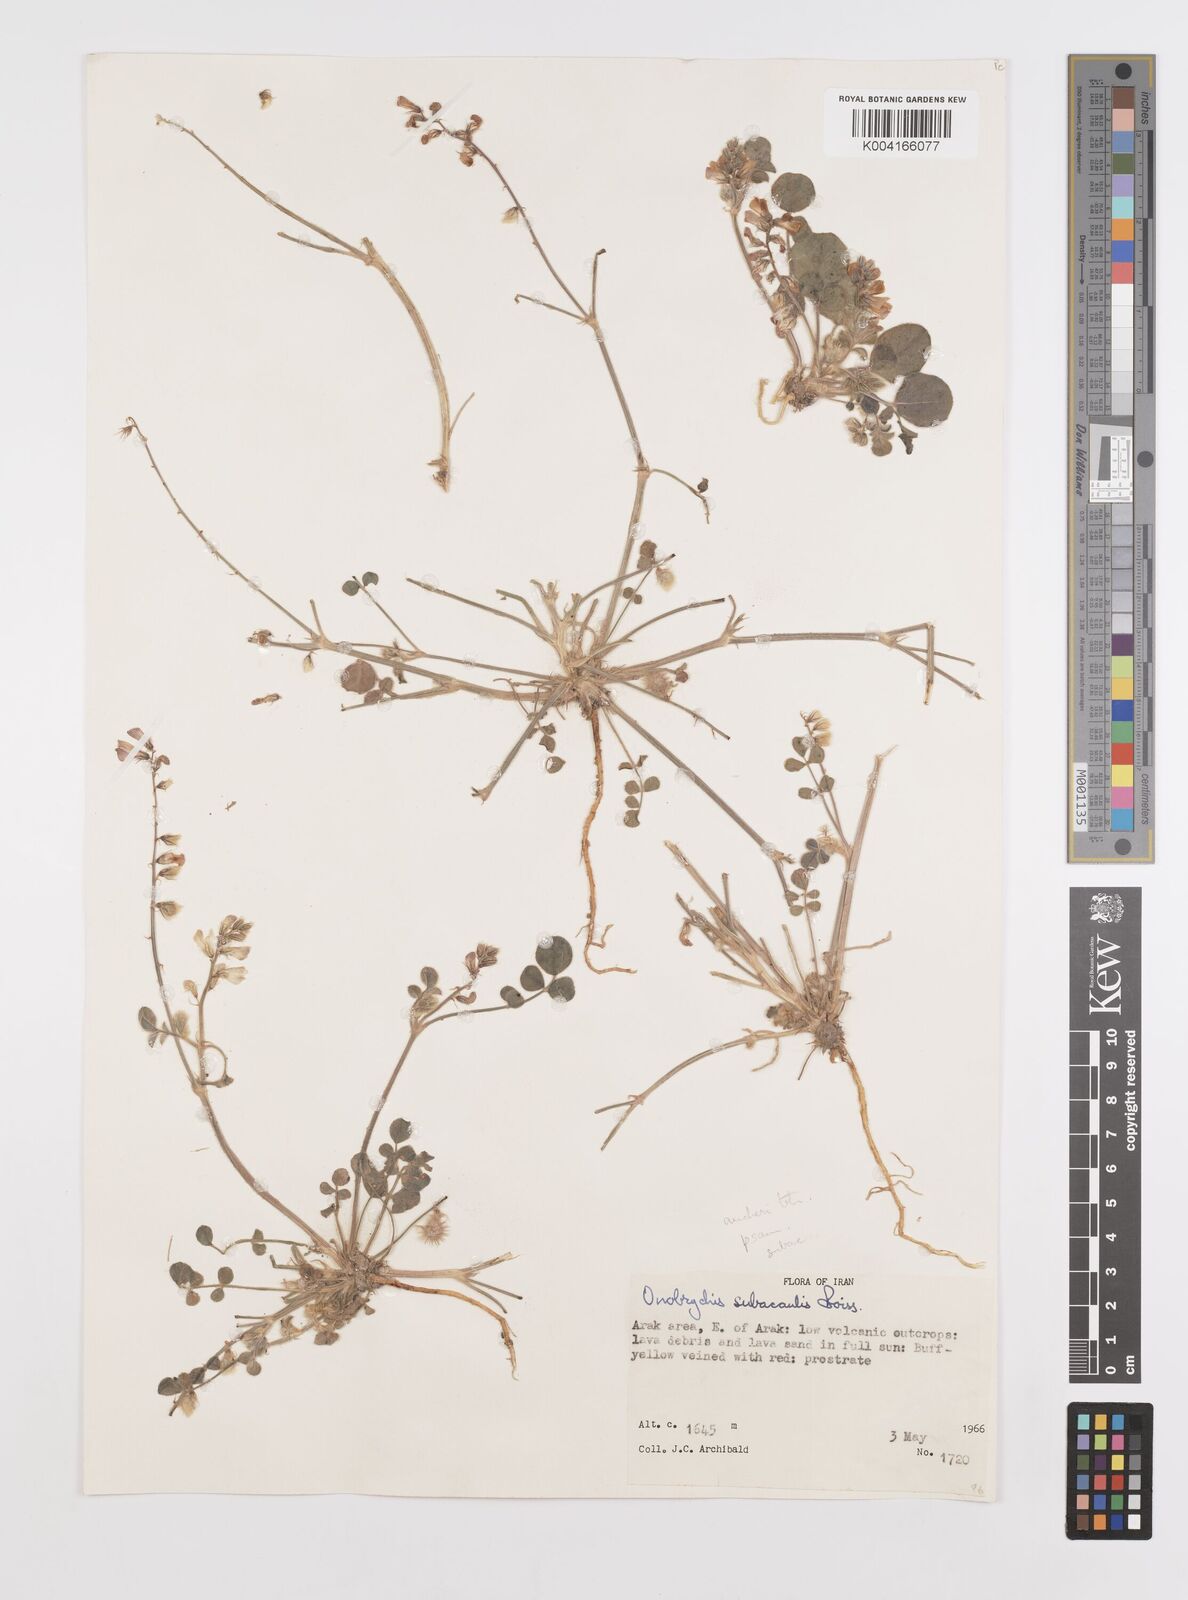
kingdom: Plantae
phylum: Tracheophyta
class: Magnoliopsida
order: Fabales
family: Fabaceae
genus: Onobrychis
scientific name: Onobrychis subacaulis
